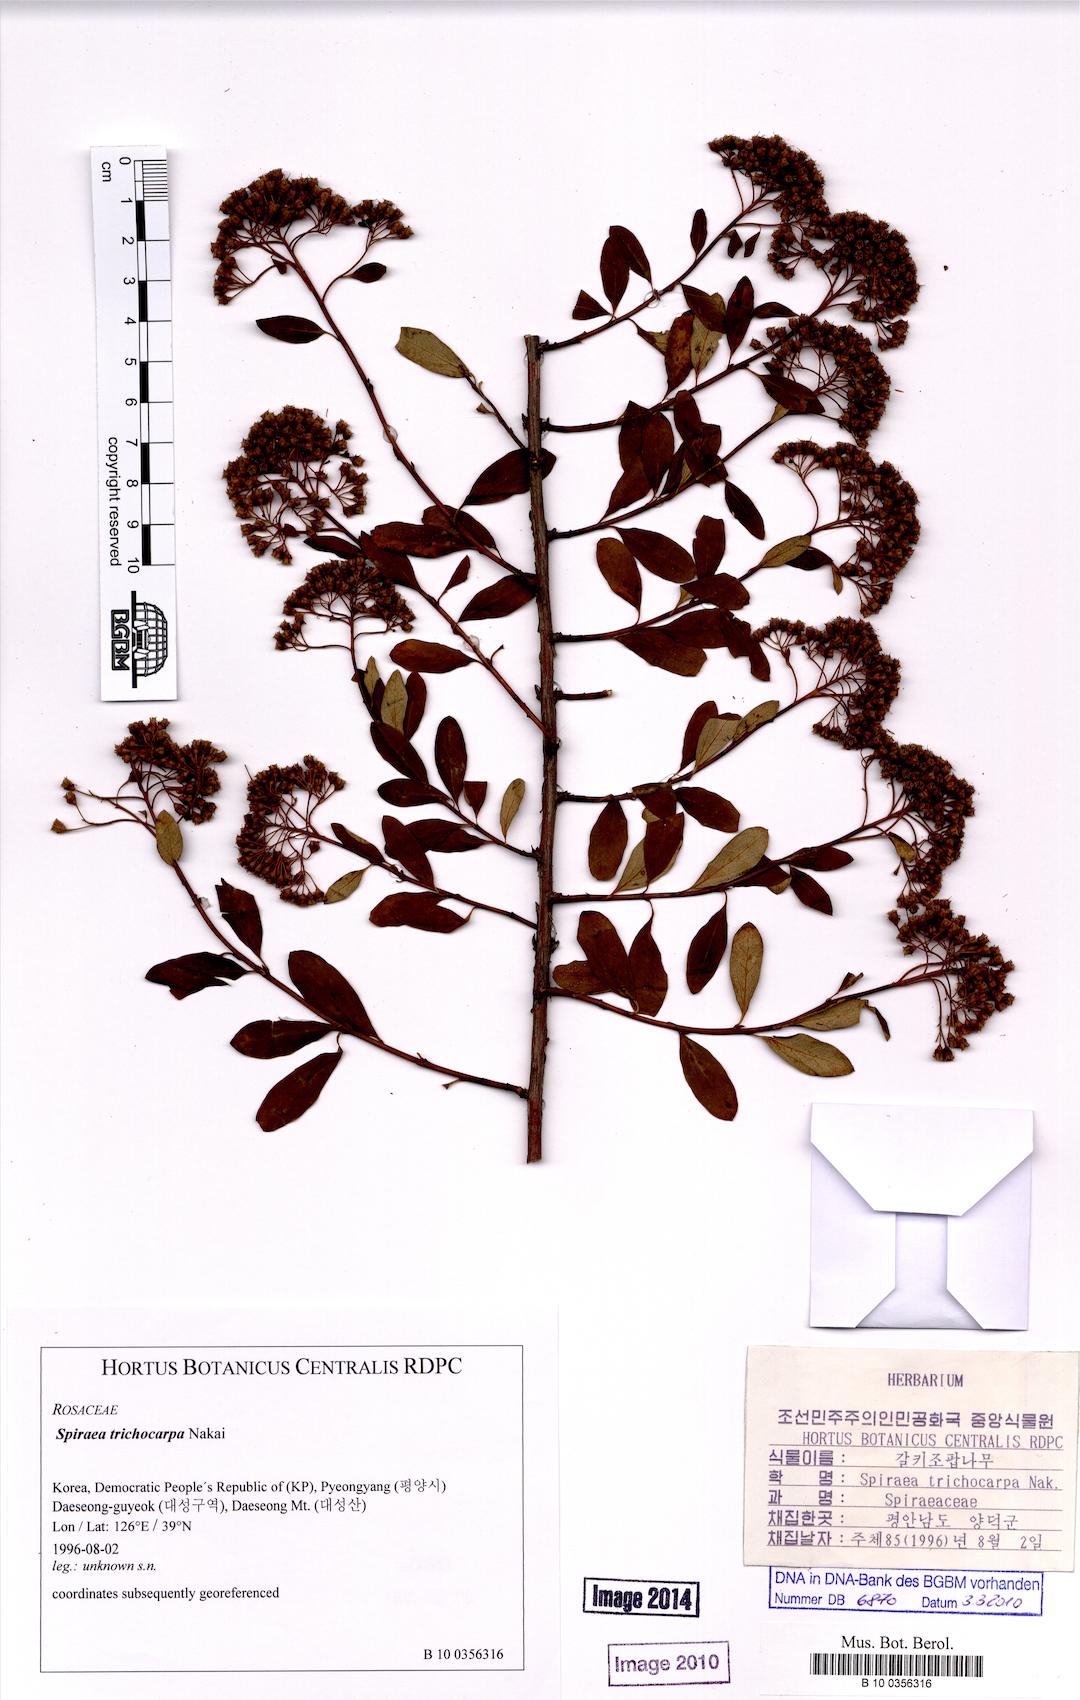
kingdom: Plantae
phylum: Tracheophyta
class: Magnoliopsida
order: Rosales
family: Rosaceae
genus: Spiraea
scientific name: Spiraea trichocarpa
